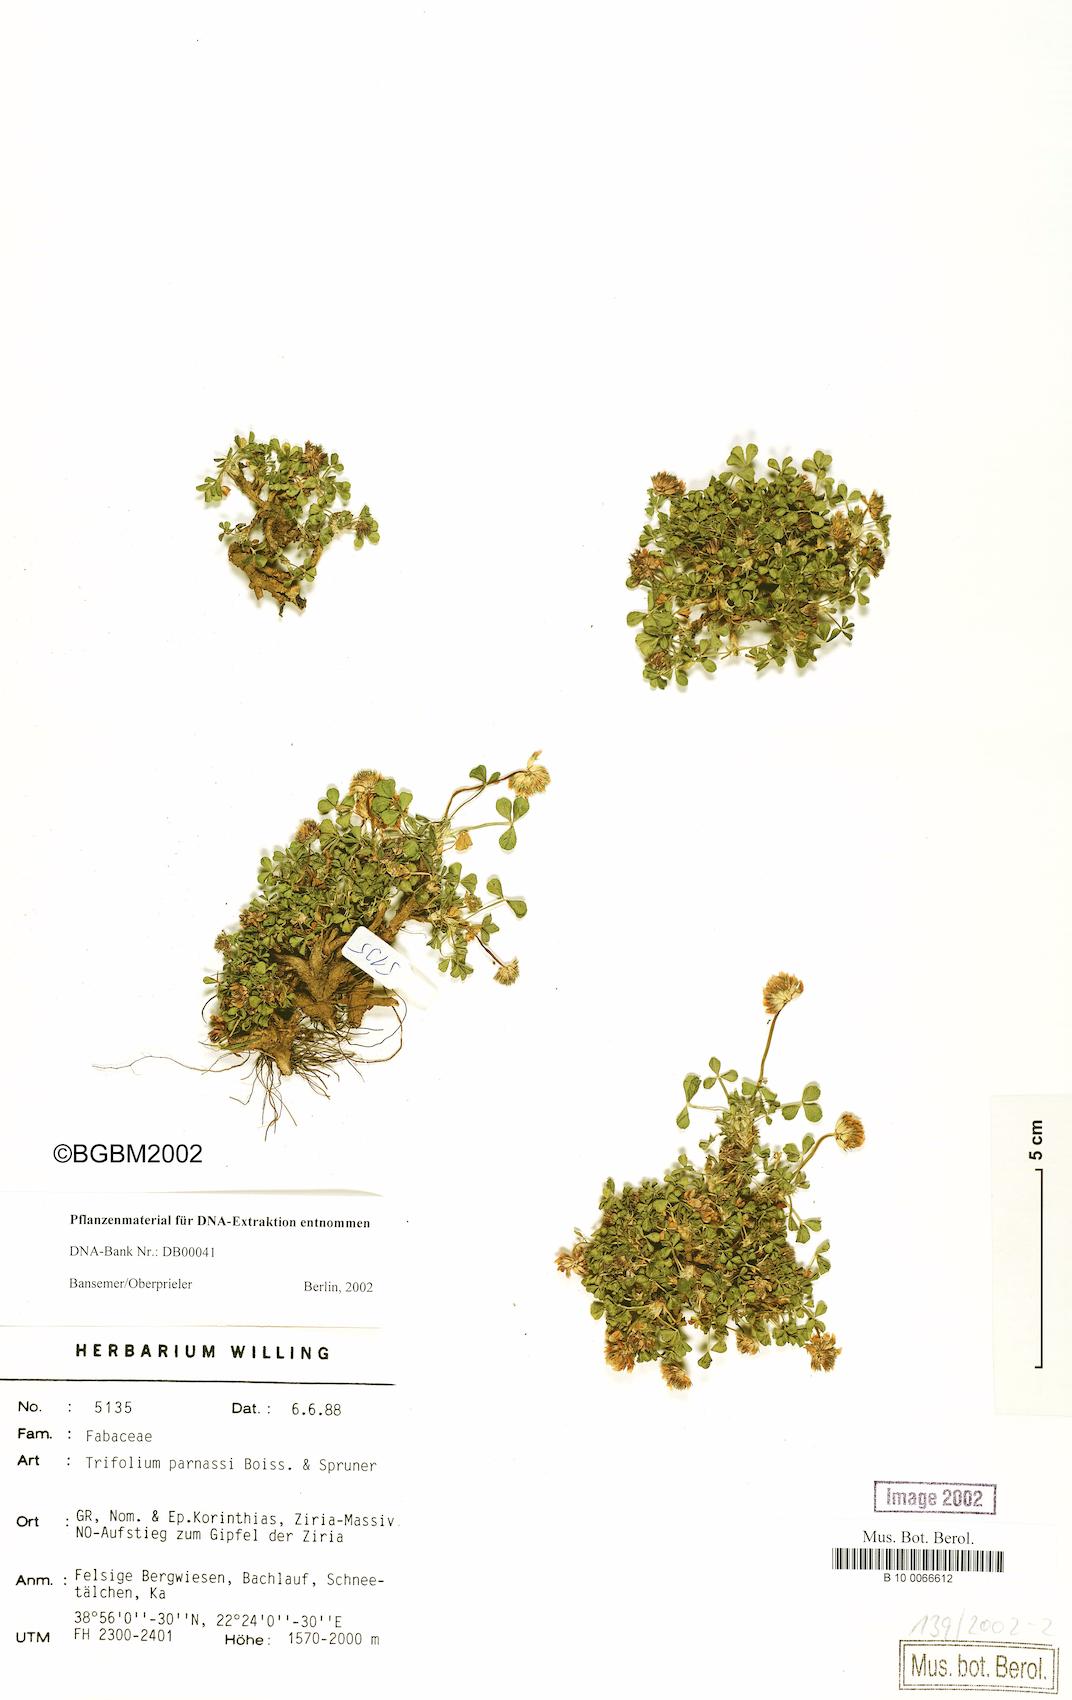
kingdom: Plantae
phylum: Tracheophyta
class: Magnoliopsida
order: Fabales
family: Fabaceae
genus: Trifolium
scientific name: Trifolium parnassi
